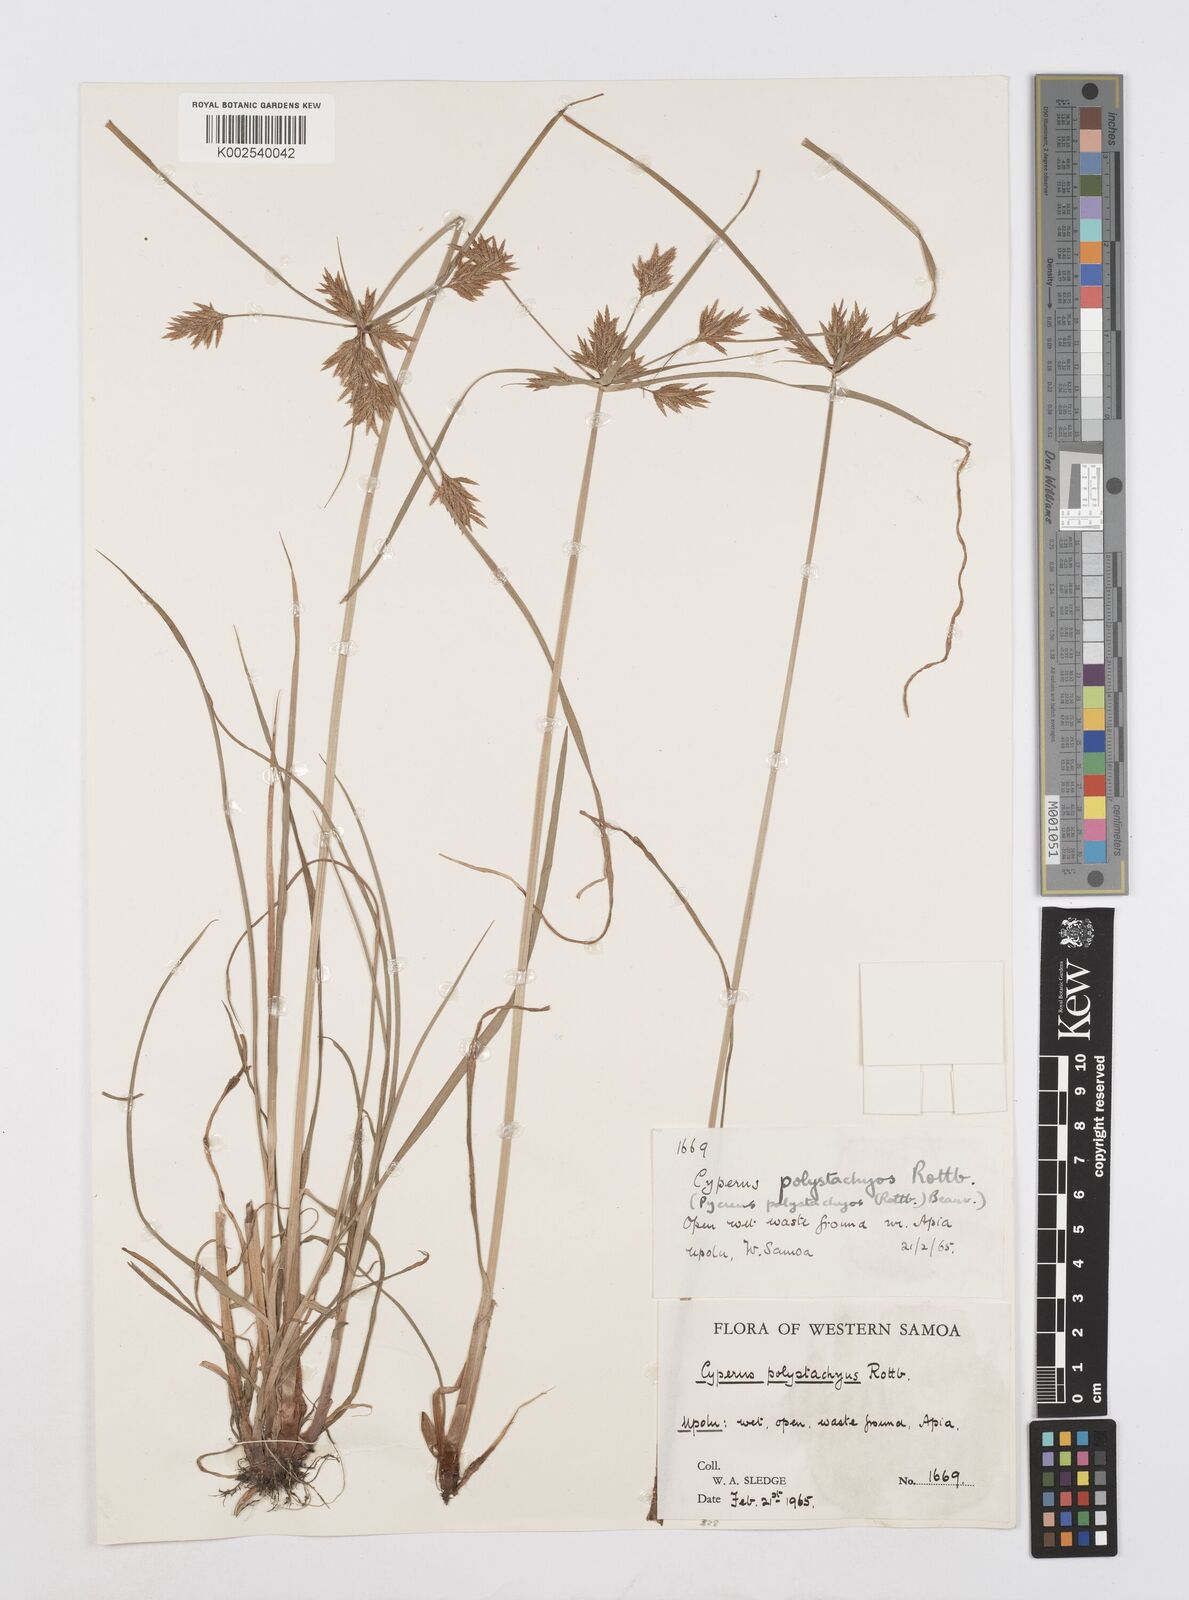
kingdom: Plantae
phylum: Tracheophyta
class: Liliopsida
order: Poales
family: Cyperaceae
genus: Cyperus
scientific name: Cyperus polystachyos
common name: Bunchy flat sedge
